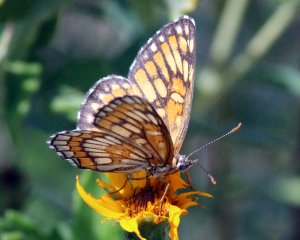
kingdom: Animalia
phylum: Arthropoda
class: Insecta
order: Lepidoptera
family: Nymphalidae
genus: Thessalia
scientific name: Thessalia theona
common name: Theona Checkerspot
